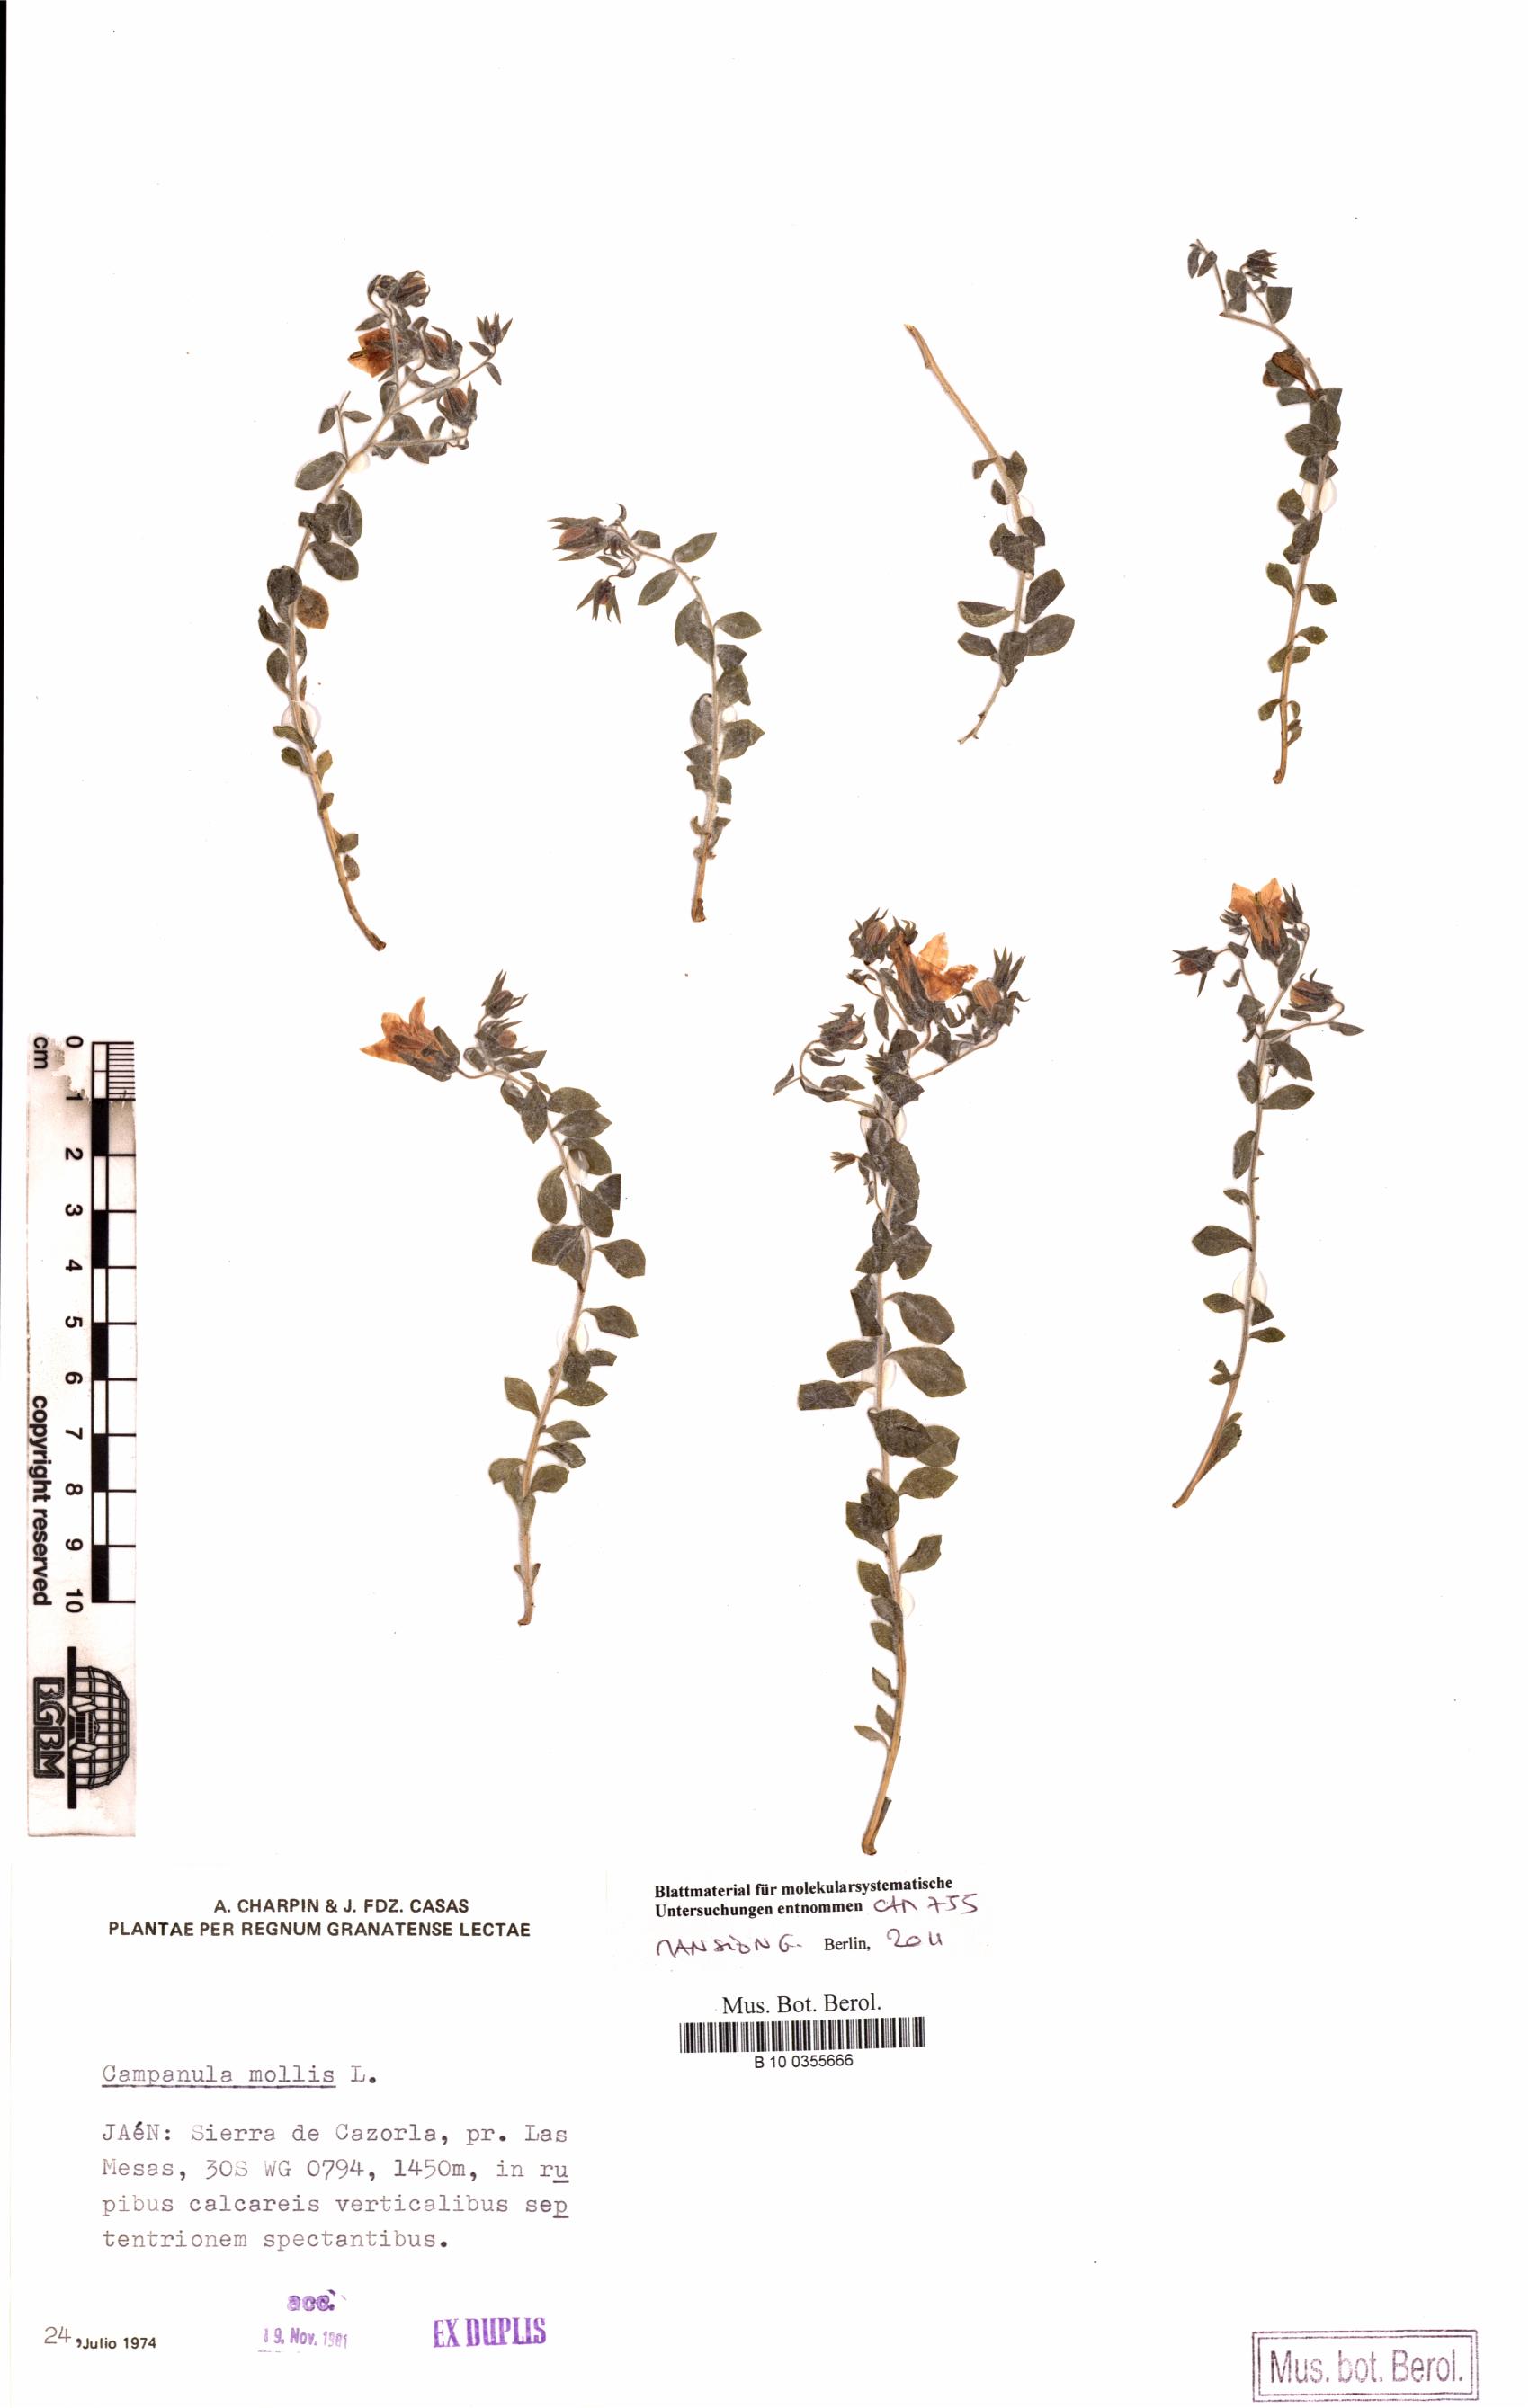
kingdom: Plantae
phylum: Tracheophyta
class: Magnoliopsida
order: Asterales
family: Campanulaceae
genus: Campanula
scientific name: Campanula mollis
